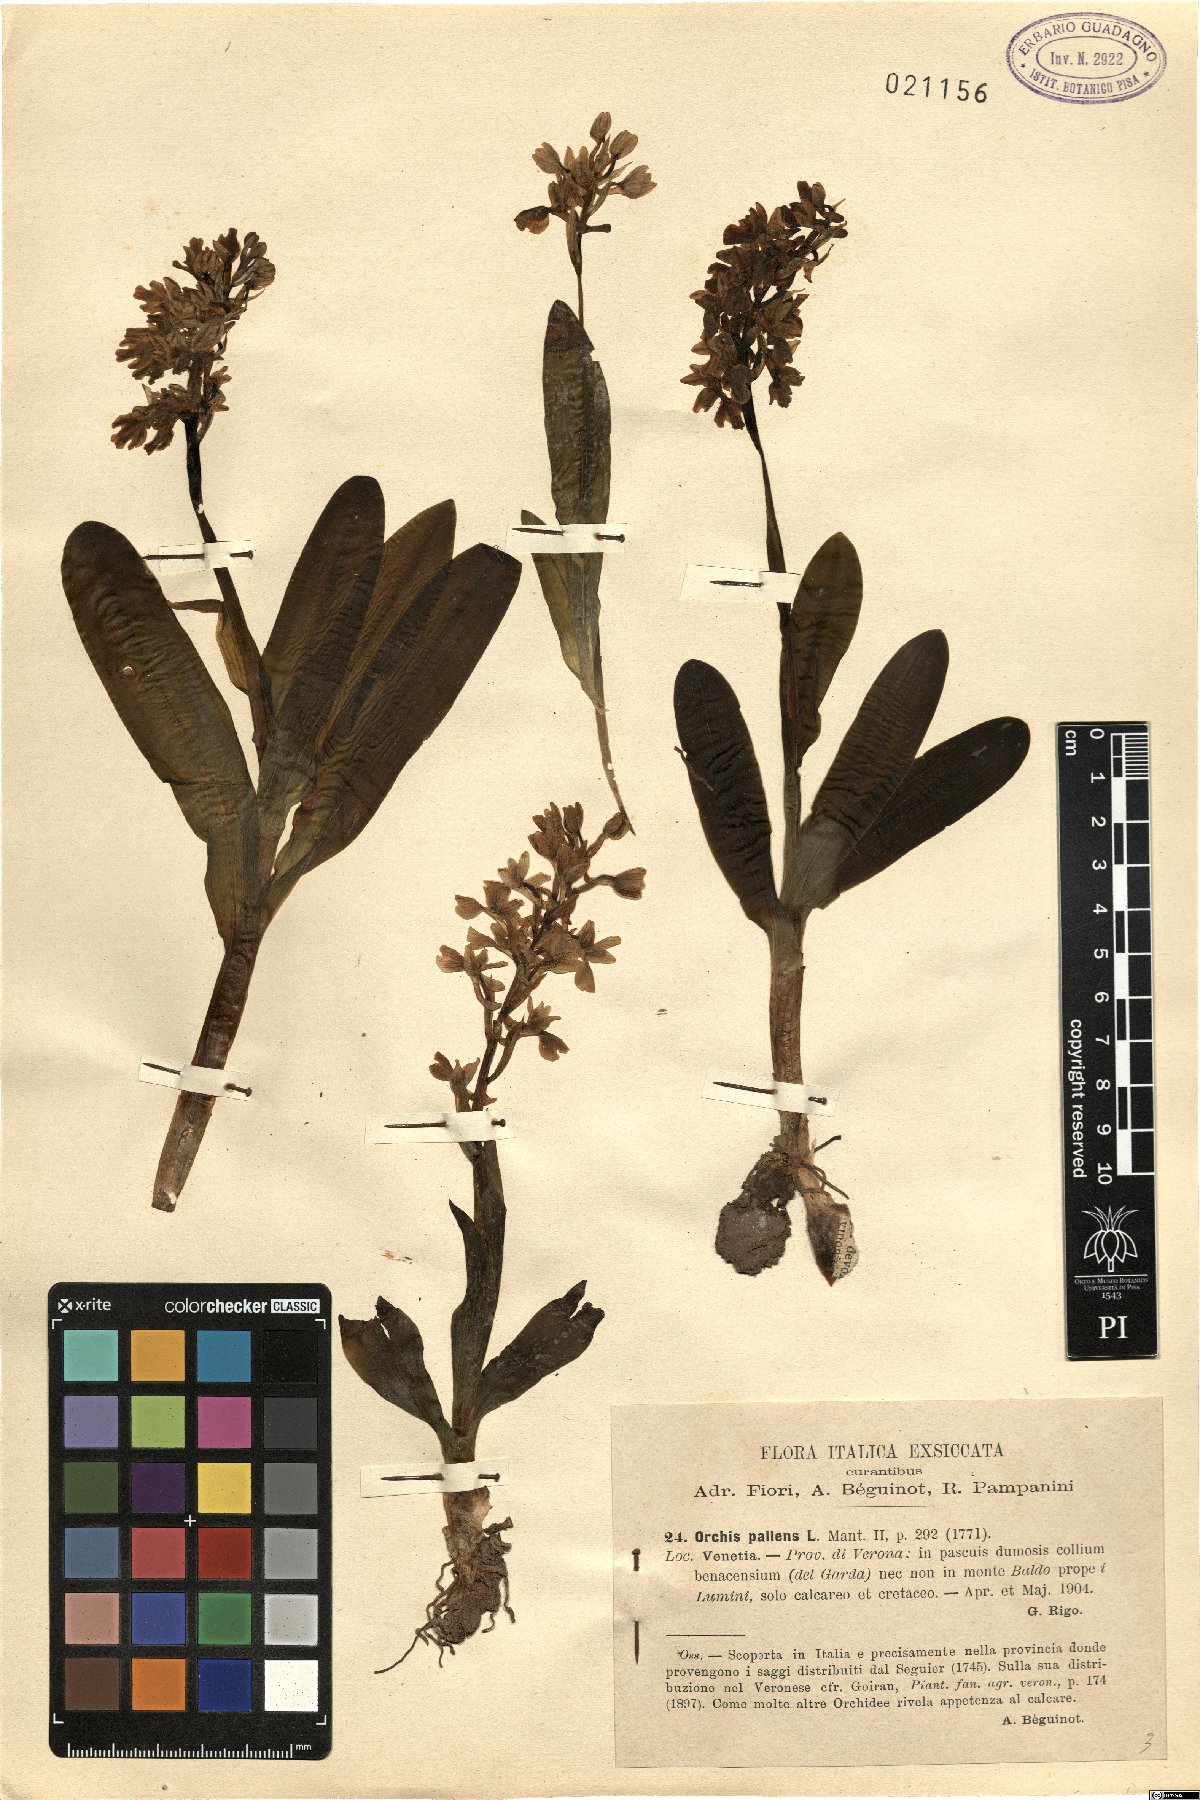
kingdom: Plantae
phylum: Tracheophyta
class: Liliopsida
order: Asparagales
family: Orchidaceae
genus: Orchis
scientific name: Orchis pallens
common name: Pale-flowered orchid
